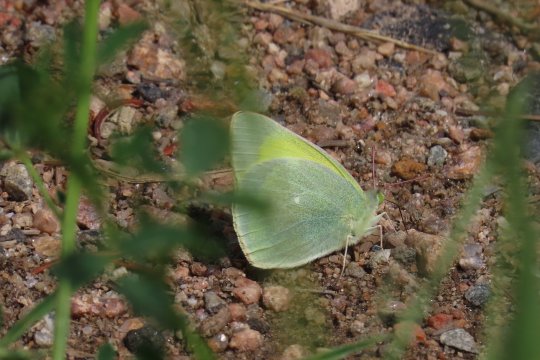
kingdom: Animalia
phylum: Arthropoda
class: Insecta
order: Lepidoptera
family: Pieridae
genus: Colias
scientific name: Colias alexandra
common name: Queen Alexandra's Sulphur
